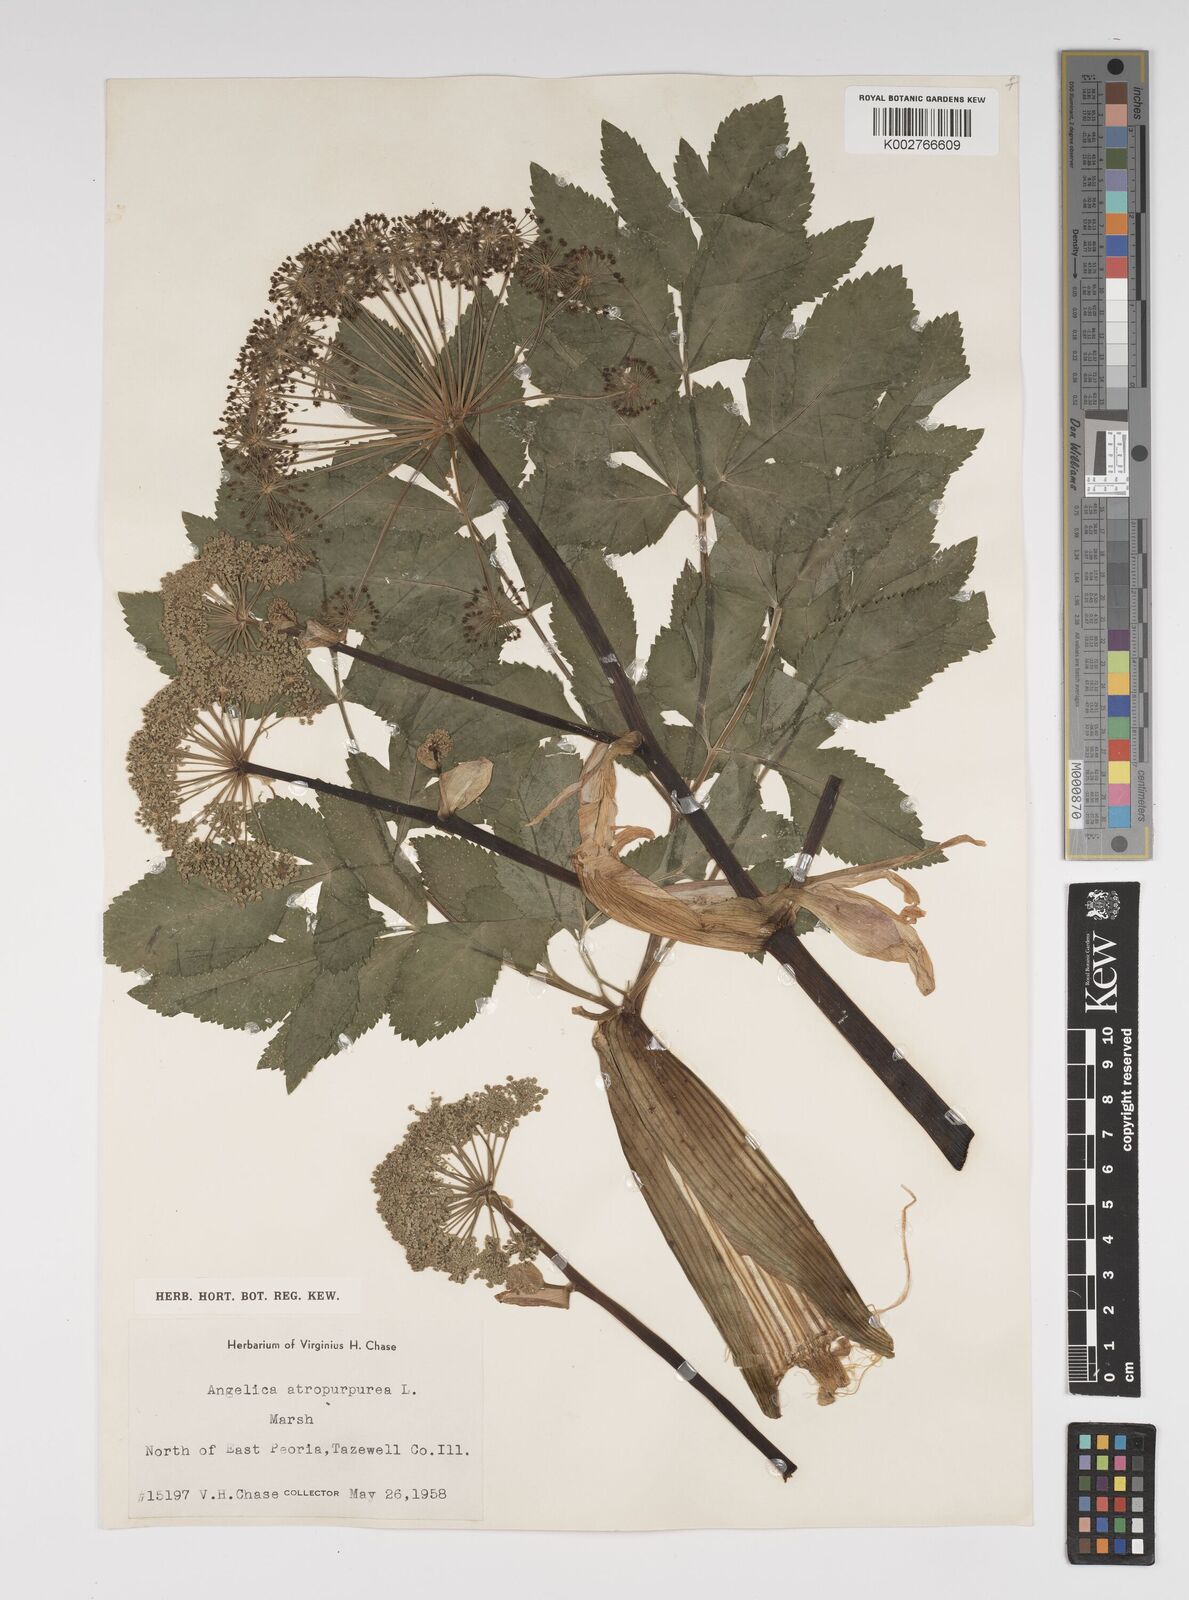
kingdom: Plantae
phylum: Tracheophyta
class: Magnoliopsida
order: Apiales
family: Apiaceae
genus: Angelica
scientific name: Angelica atropurpurea
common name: Great angelica
